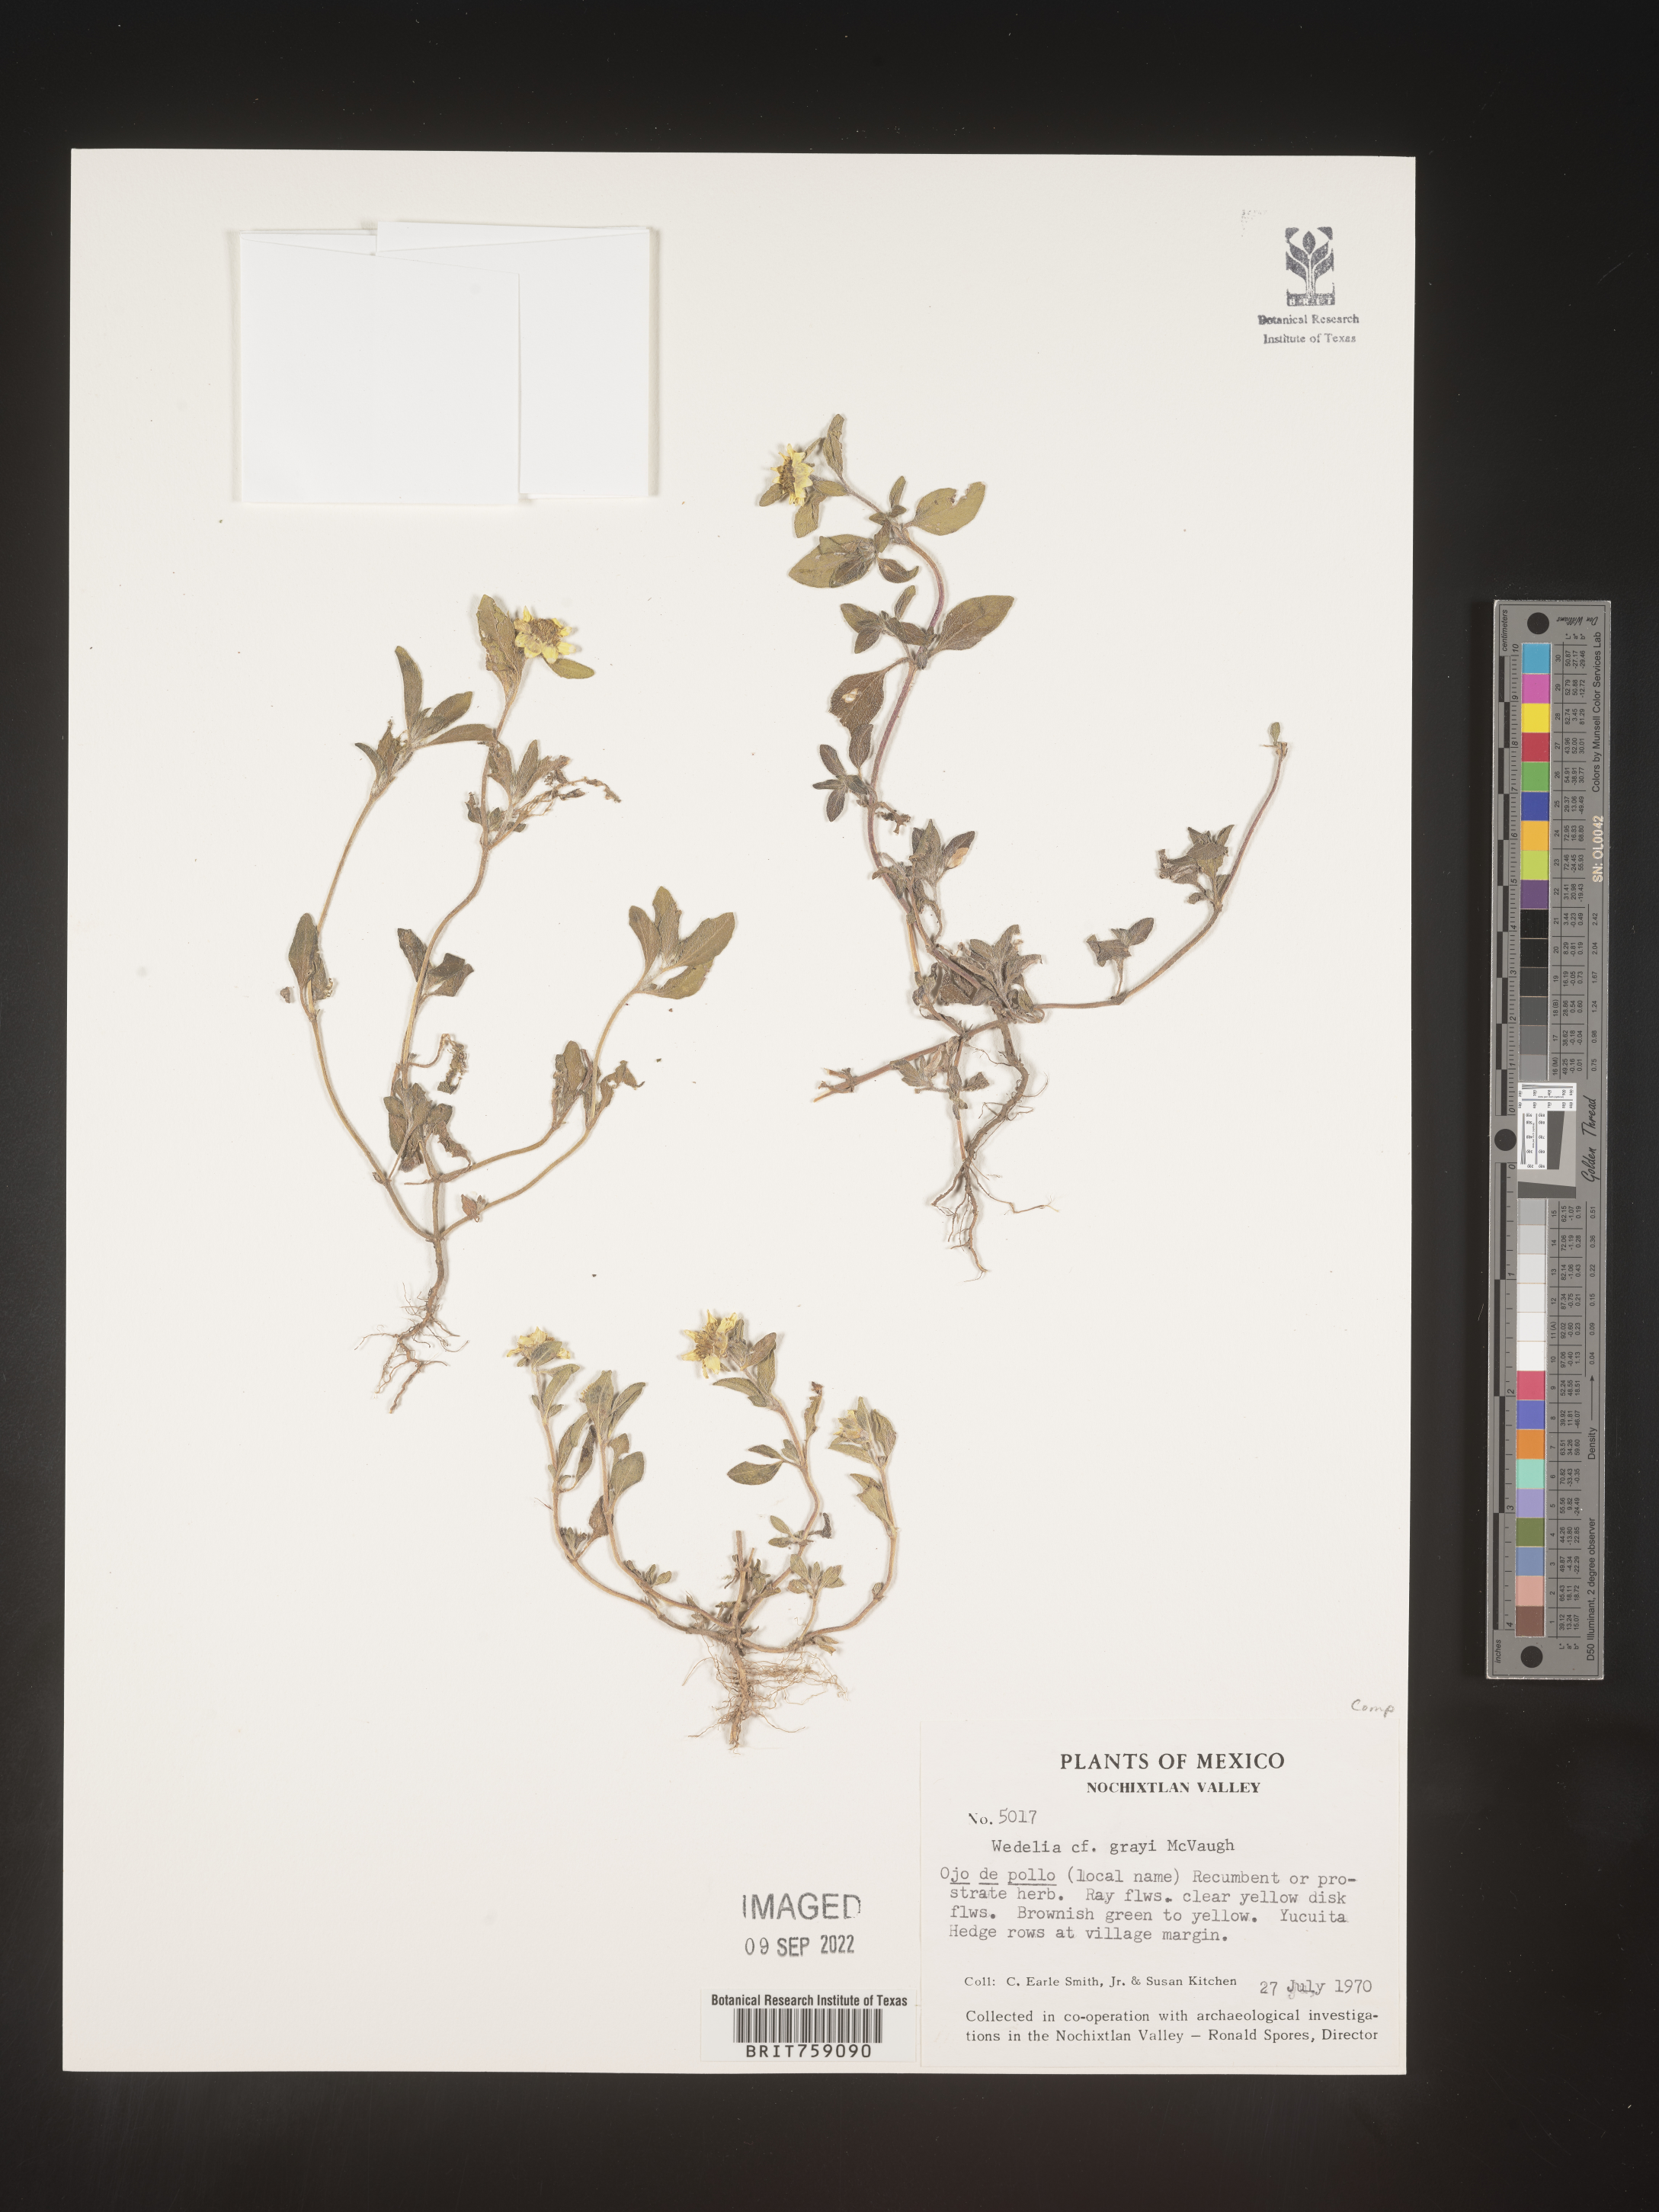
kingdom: Plantae
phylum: Tracheophyta
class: Magnoliopsida
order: Asterales
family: Asteraceae
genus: Wedelia
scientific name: Wedelia
